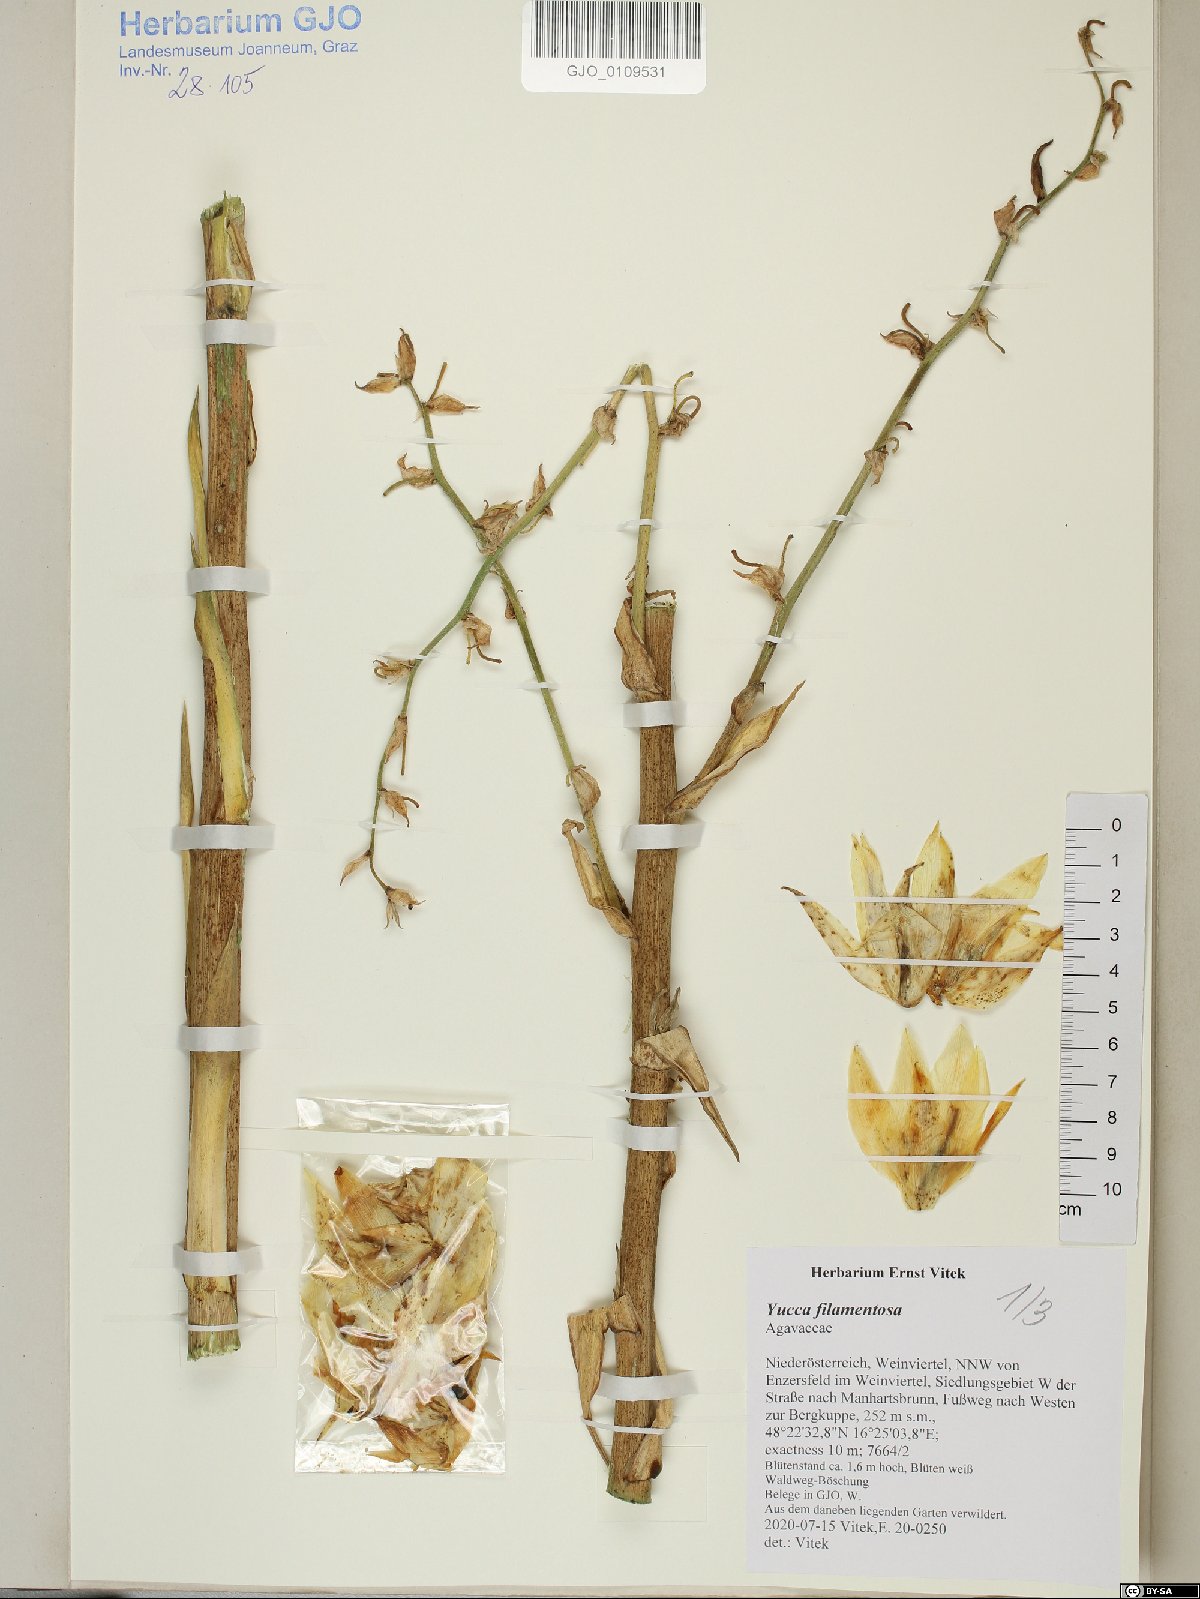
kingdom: Plantae
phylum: Tracheophyta
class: Liliopsida
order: Asparagales
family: Asparagaceae
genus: Yucca
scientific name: Yucca filamentosa
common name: Adam's-needle
